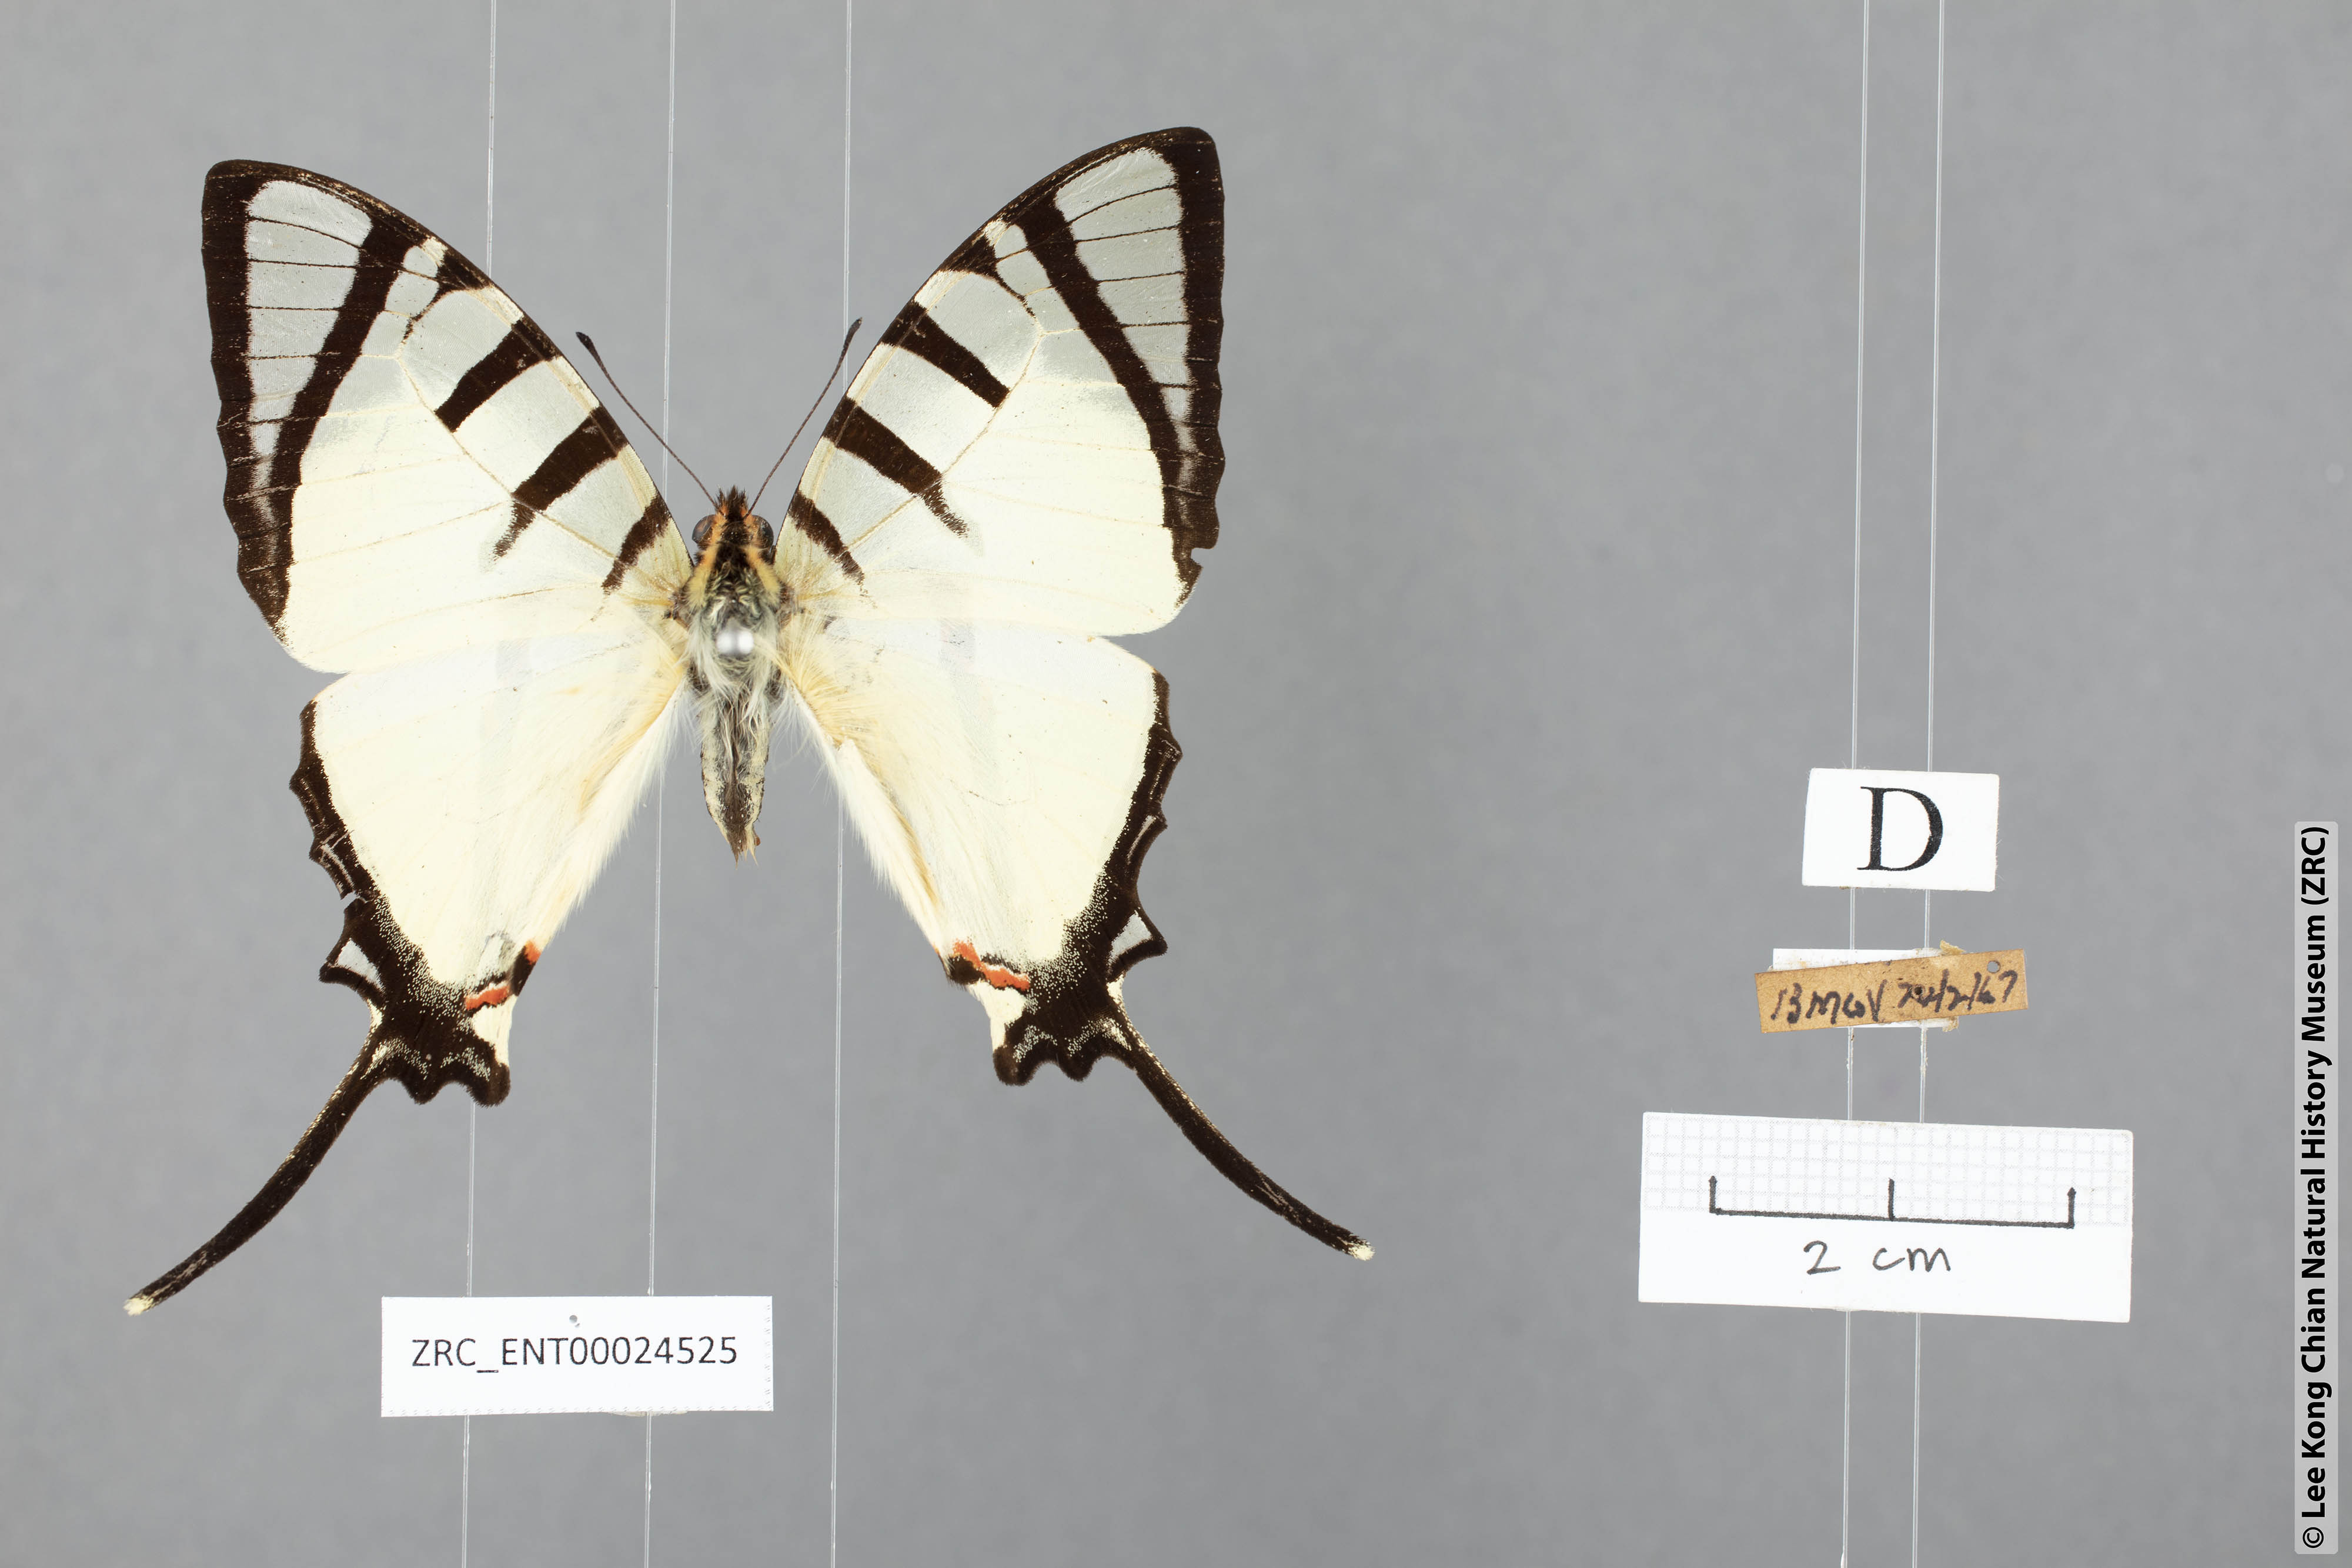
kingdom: Animalia
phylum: Arthropoda
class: Insecta
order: Lepidoptera
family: Papilionidae
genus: Graphium
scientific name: Graphium agetes
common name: Fourbar swordtail
